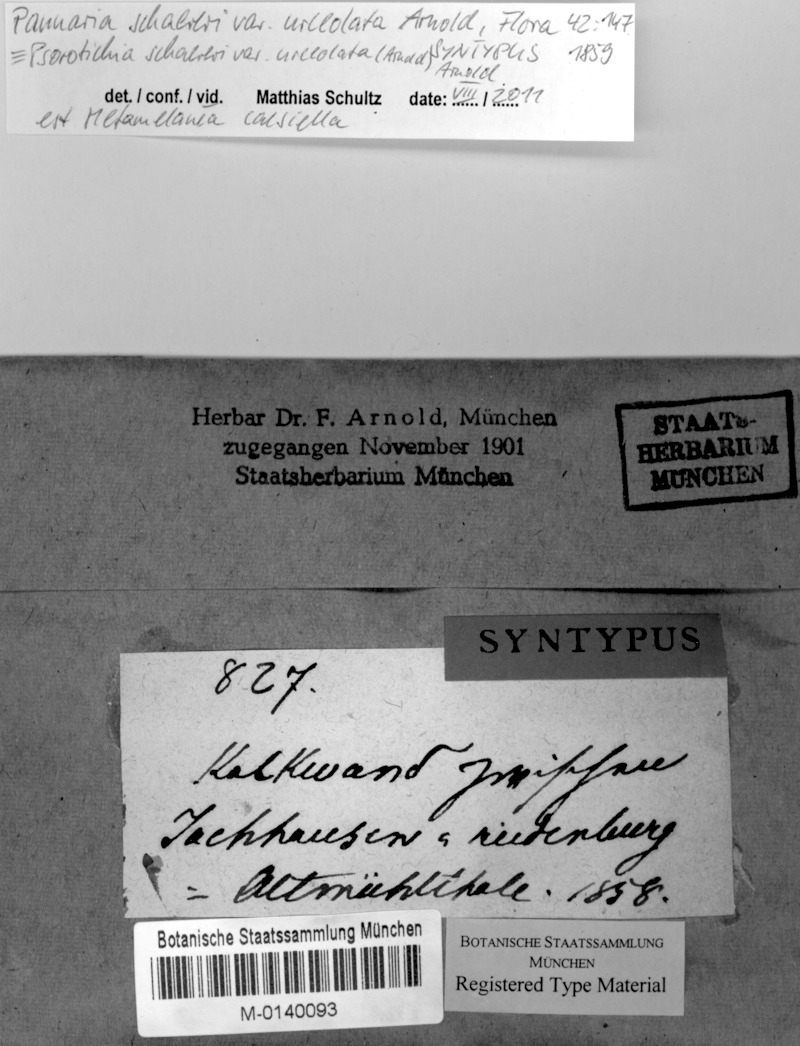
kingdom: Fungi
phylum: Ascomycota
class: Lichinomycetes
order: Lichinales
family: Lichinaceae
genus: Psorotichia
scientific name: Psorotichia schaereri
